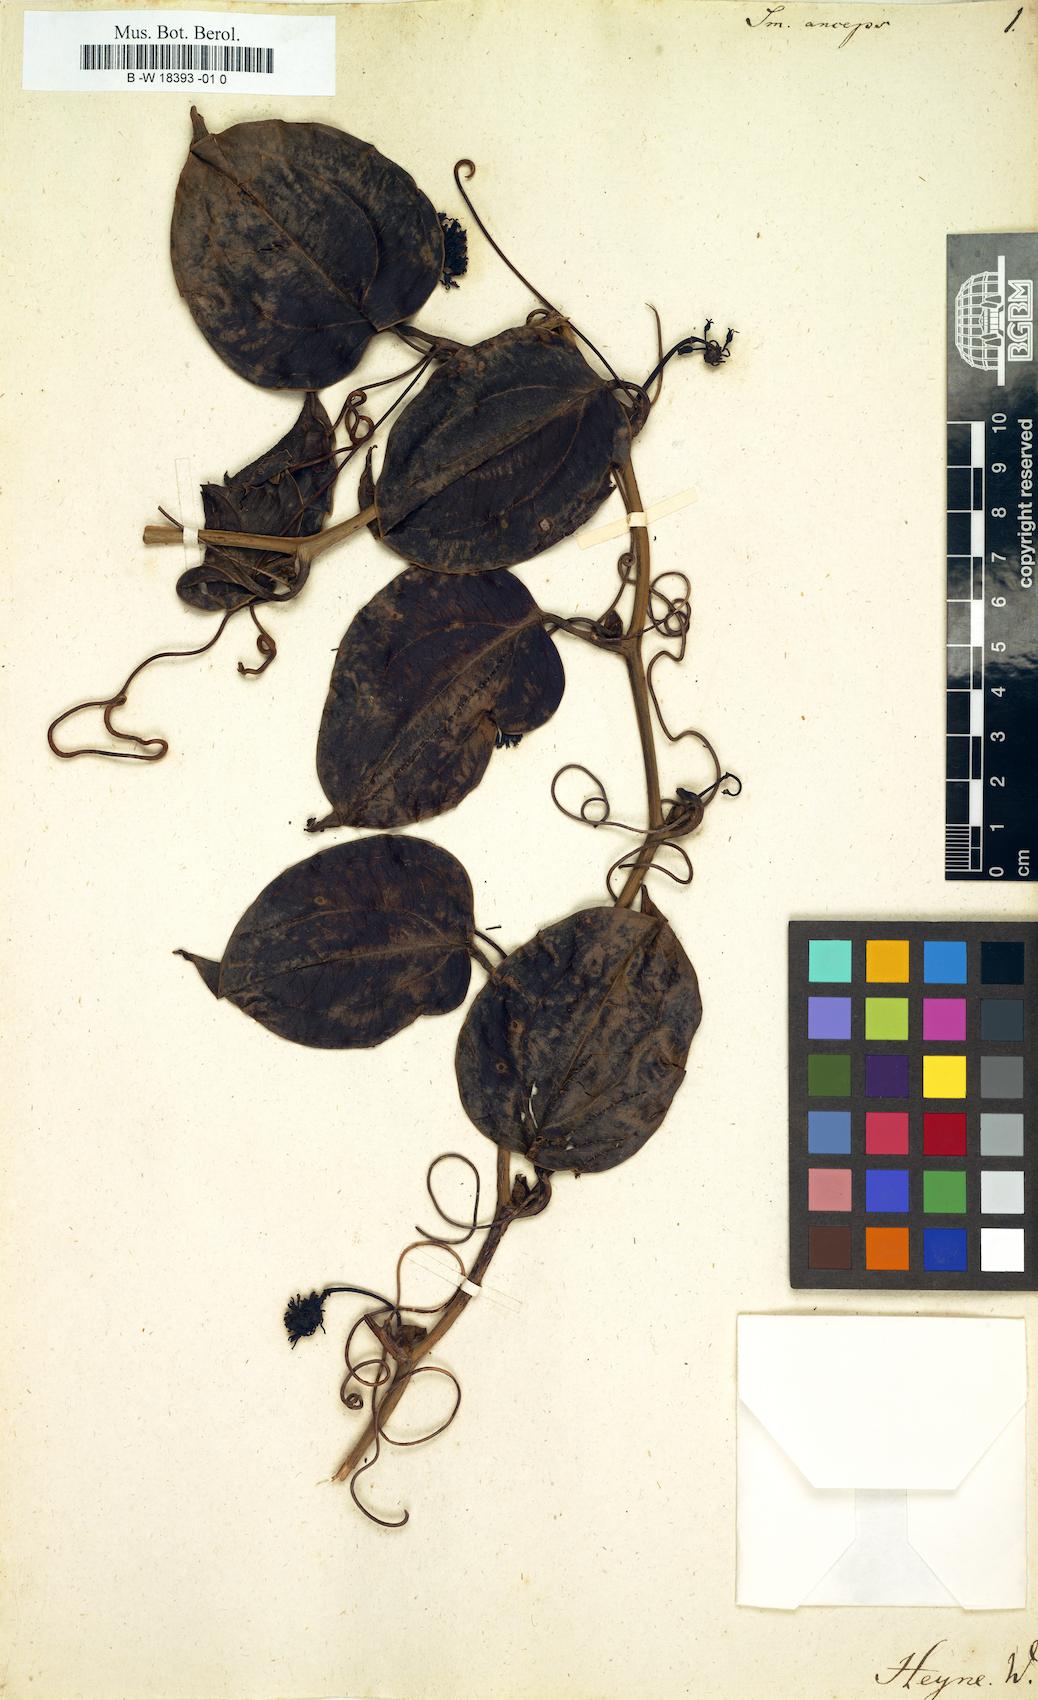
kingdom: Plantae
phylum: Tracheophyta
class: Liliopsida
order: Liliales
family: Smilacaceae
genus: Smilax
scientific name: Smilax anceps
